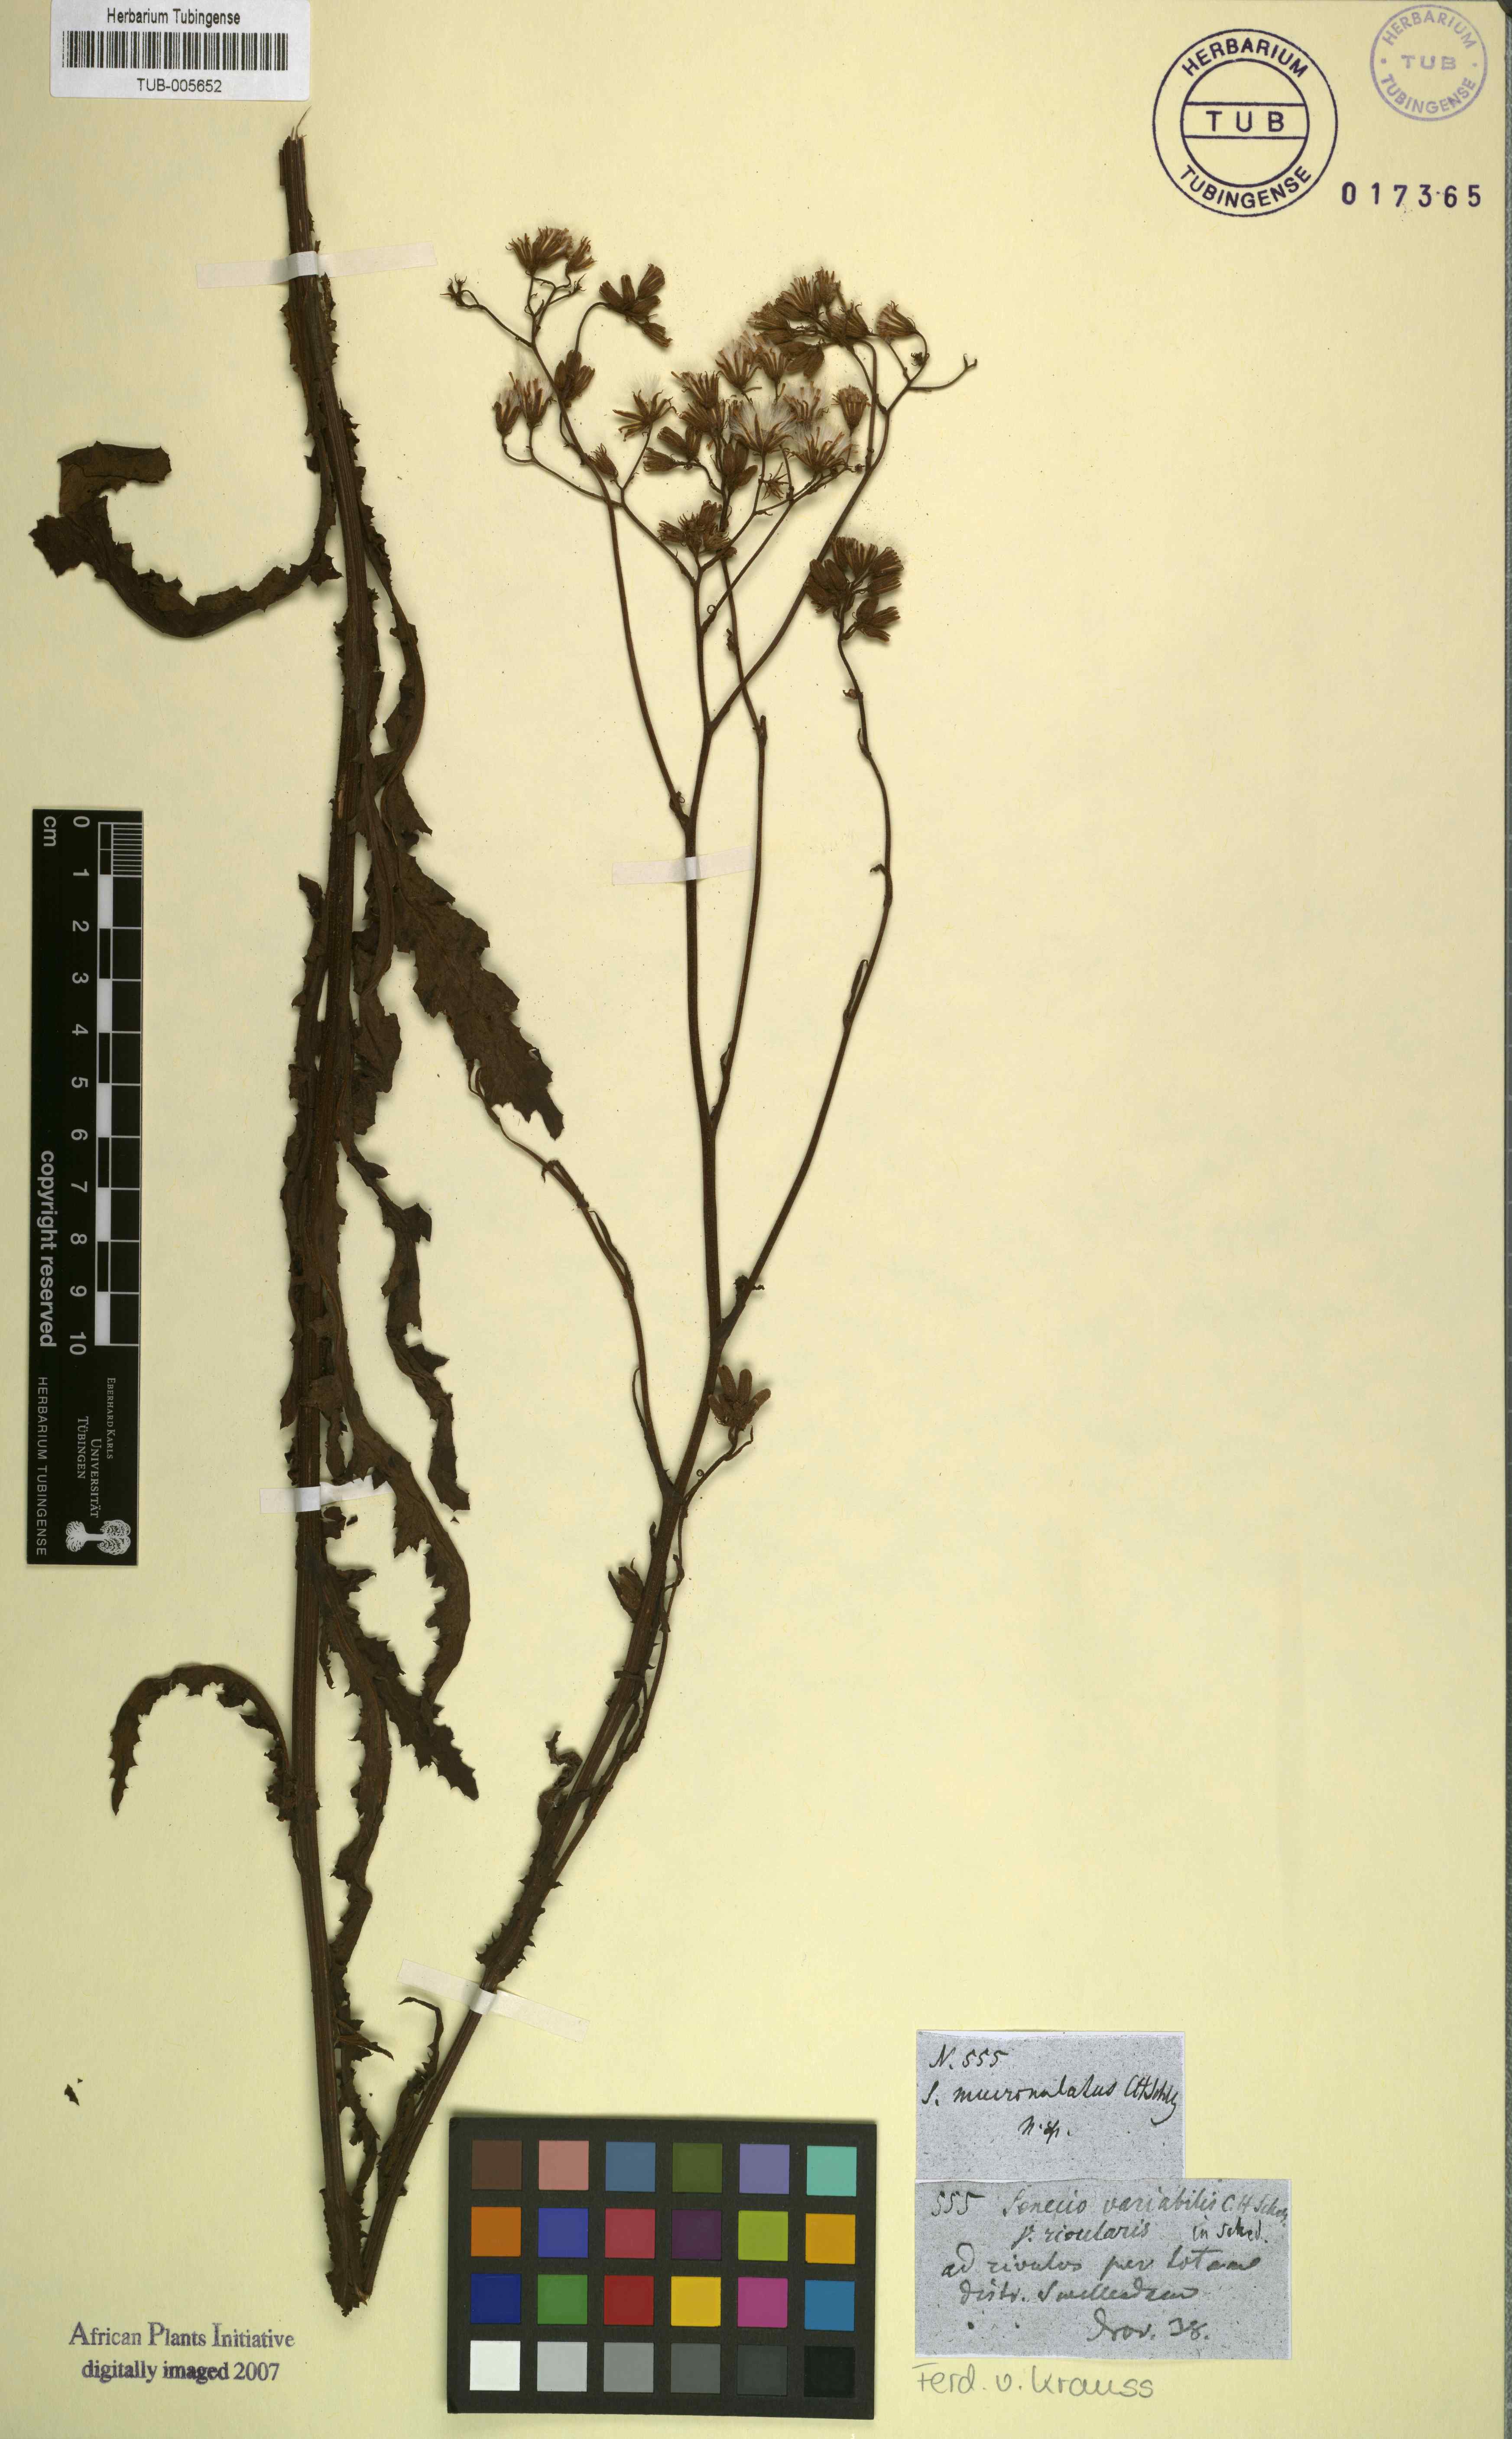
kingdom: Plantae
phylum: Tracheophyta
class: Magnoliopsida
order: Asterales
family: Asteraceae
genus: Senecio
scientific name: Senecio erubescens
